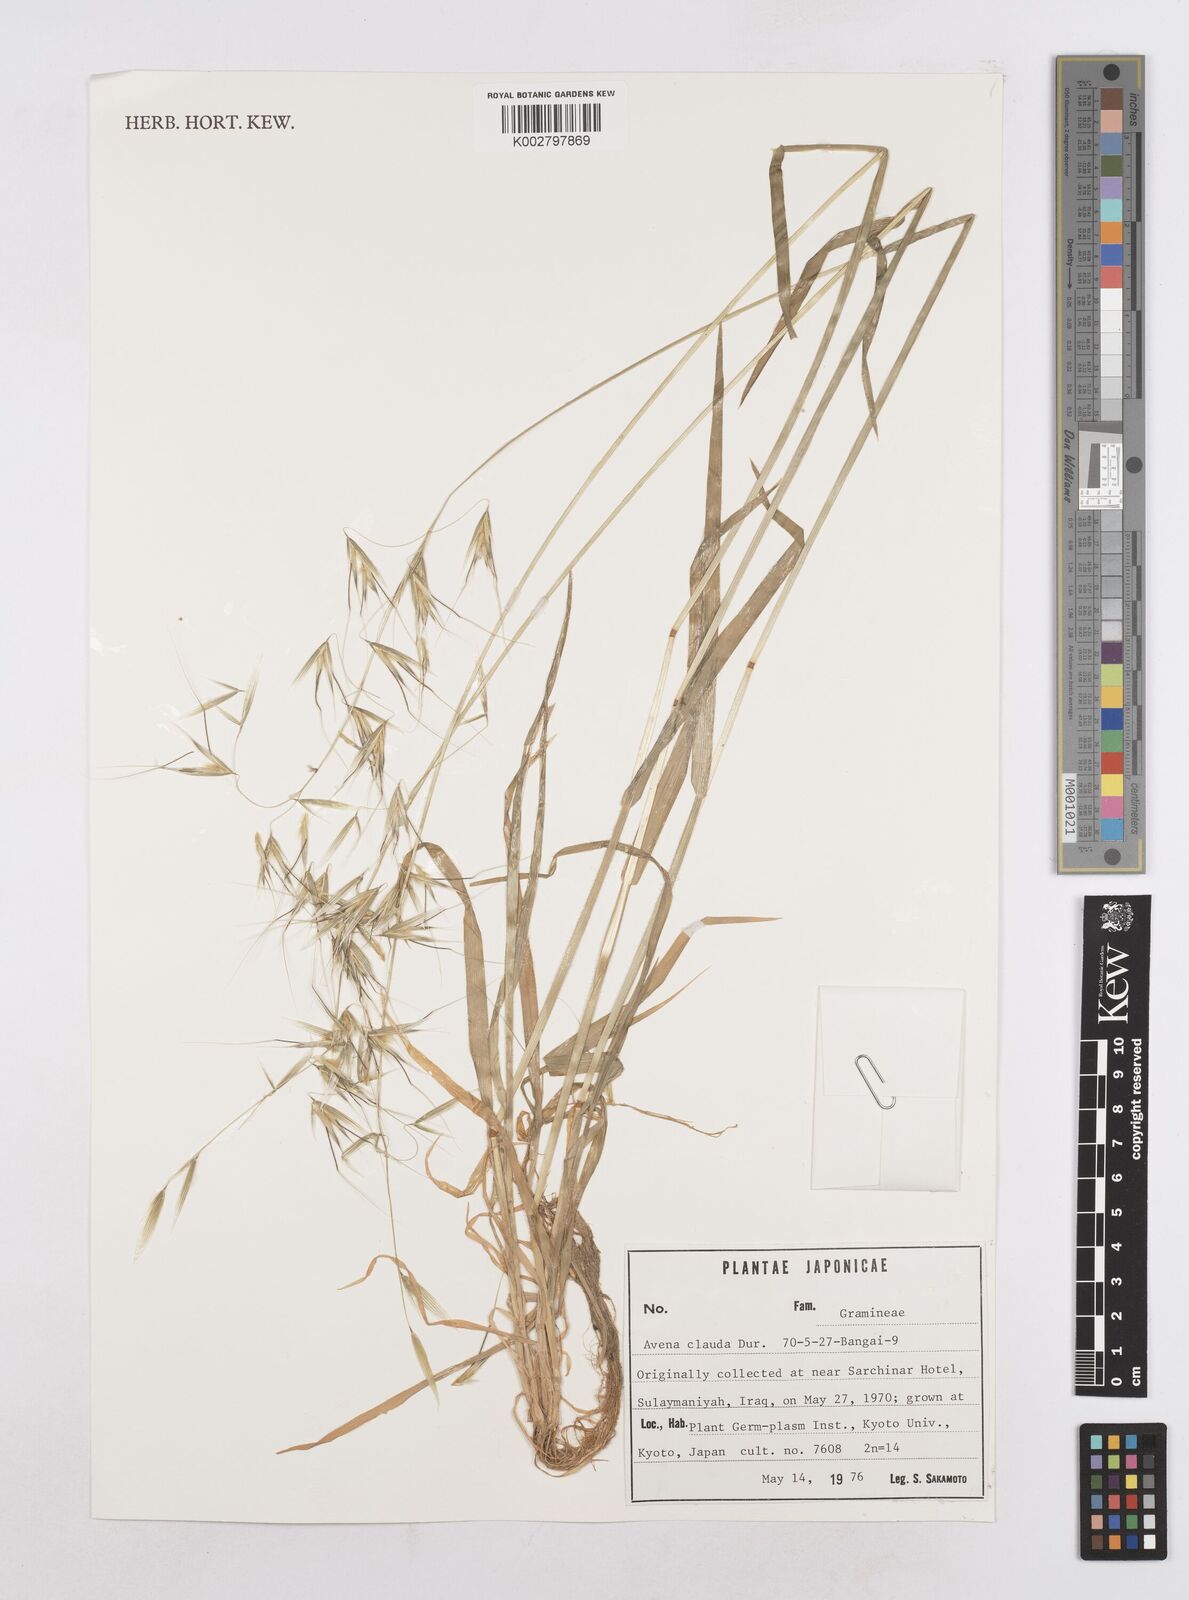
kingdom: Plantae
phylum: Tracheophyta
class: Liliopsida
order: Poales
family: Poaceae
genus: Avena
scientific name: Avena clauda
